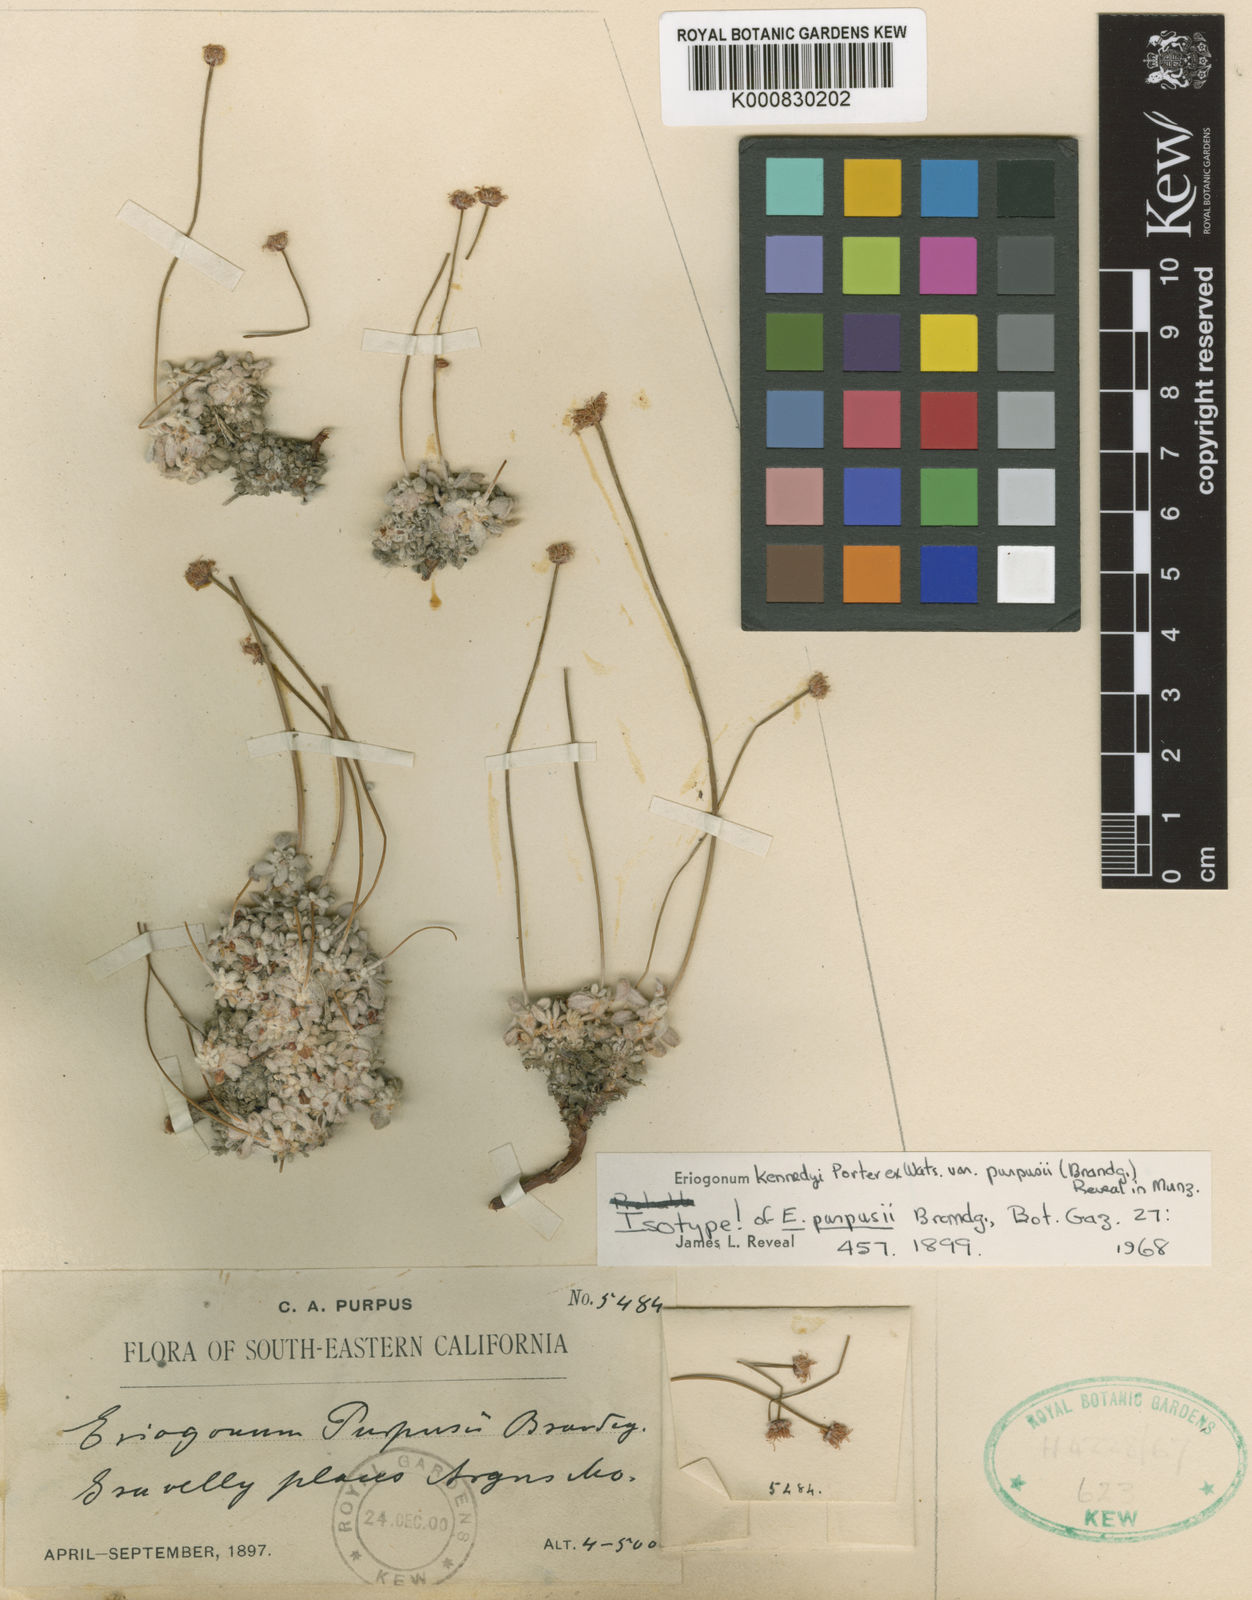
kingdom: Plantae
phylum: Tracheophyta
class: Magnoliopsida
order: Caryophyllales
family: Polygonaceae
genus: Eriogonum
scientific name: Eriogonum kennedyi
